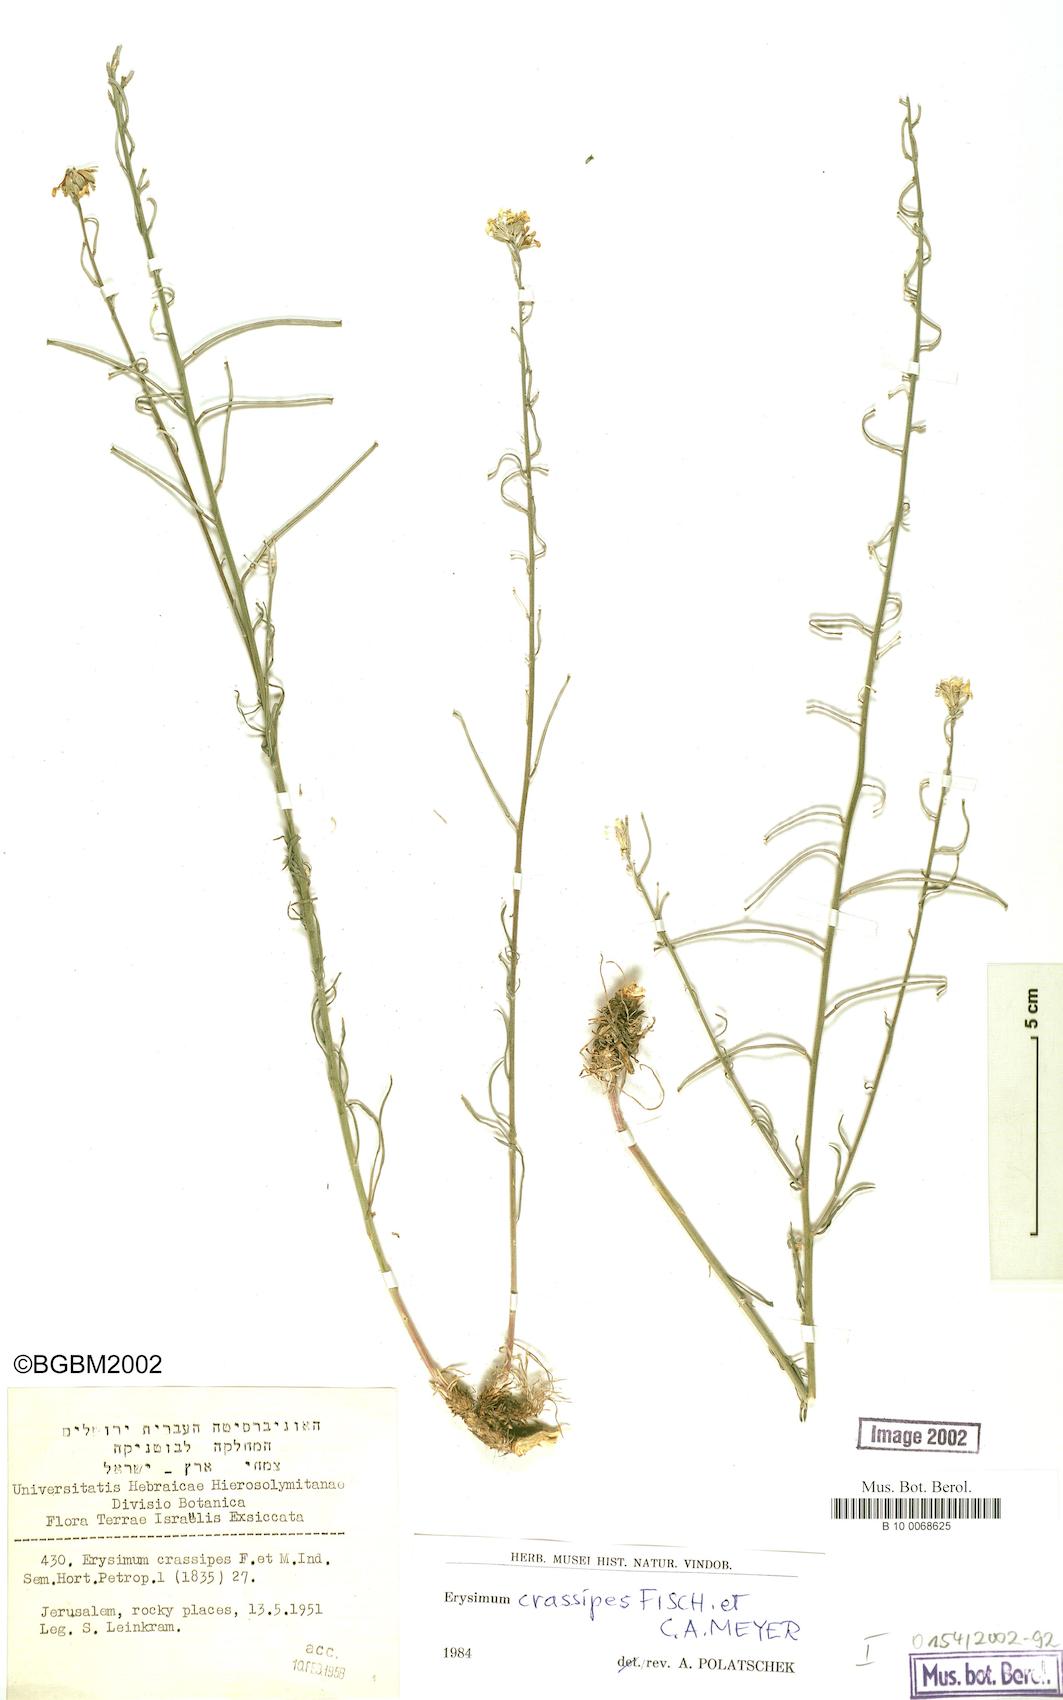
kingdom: Plantae
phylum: Tracheophyta
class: Magnoliopsida
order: Brassicales
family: Brassicaceae
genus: Erysimum
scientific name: Erysimum crassipes
